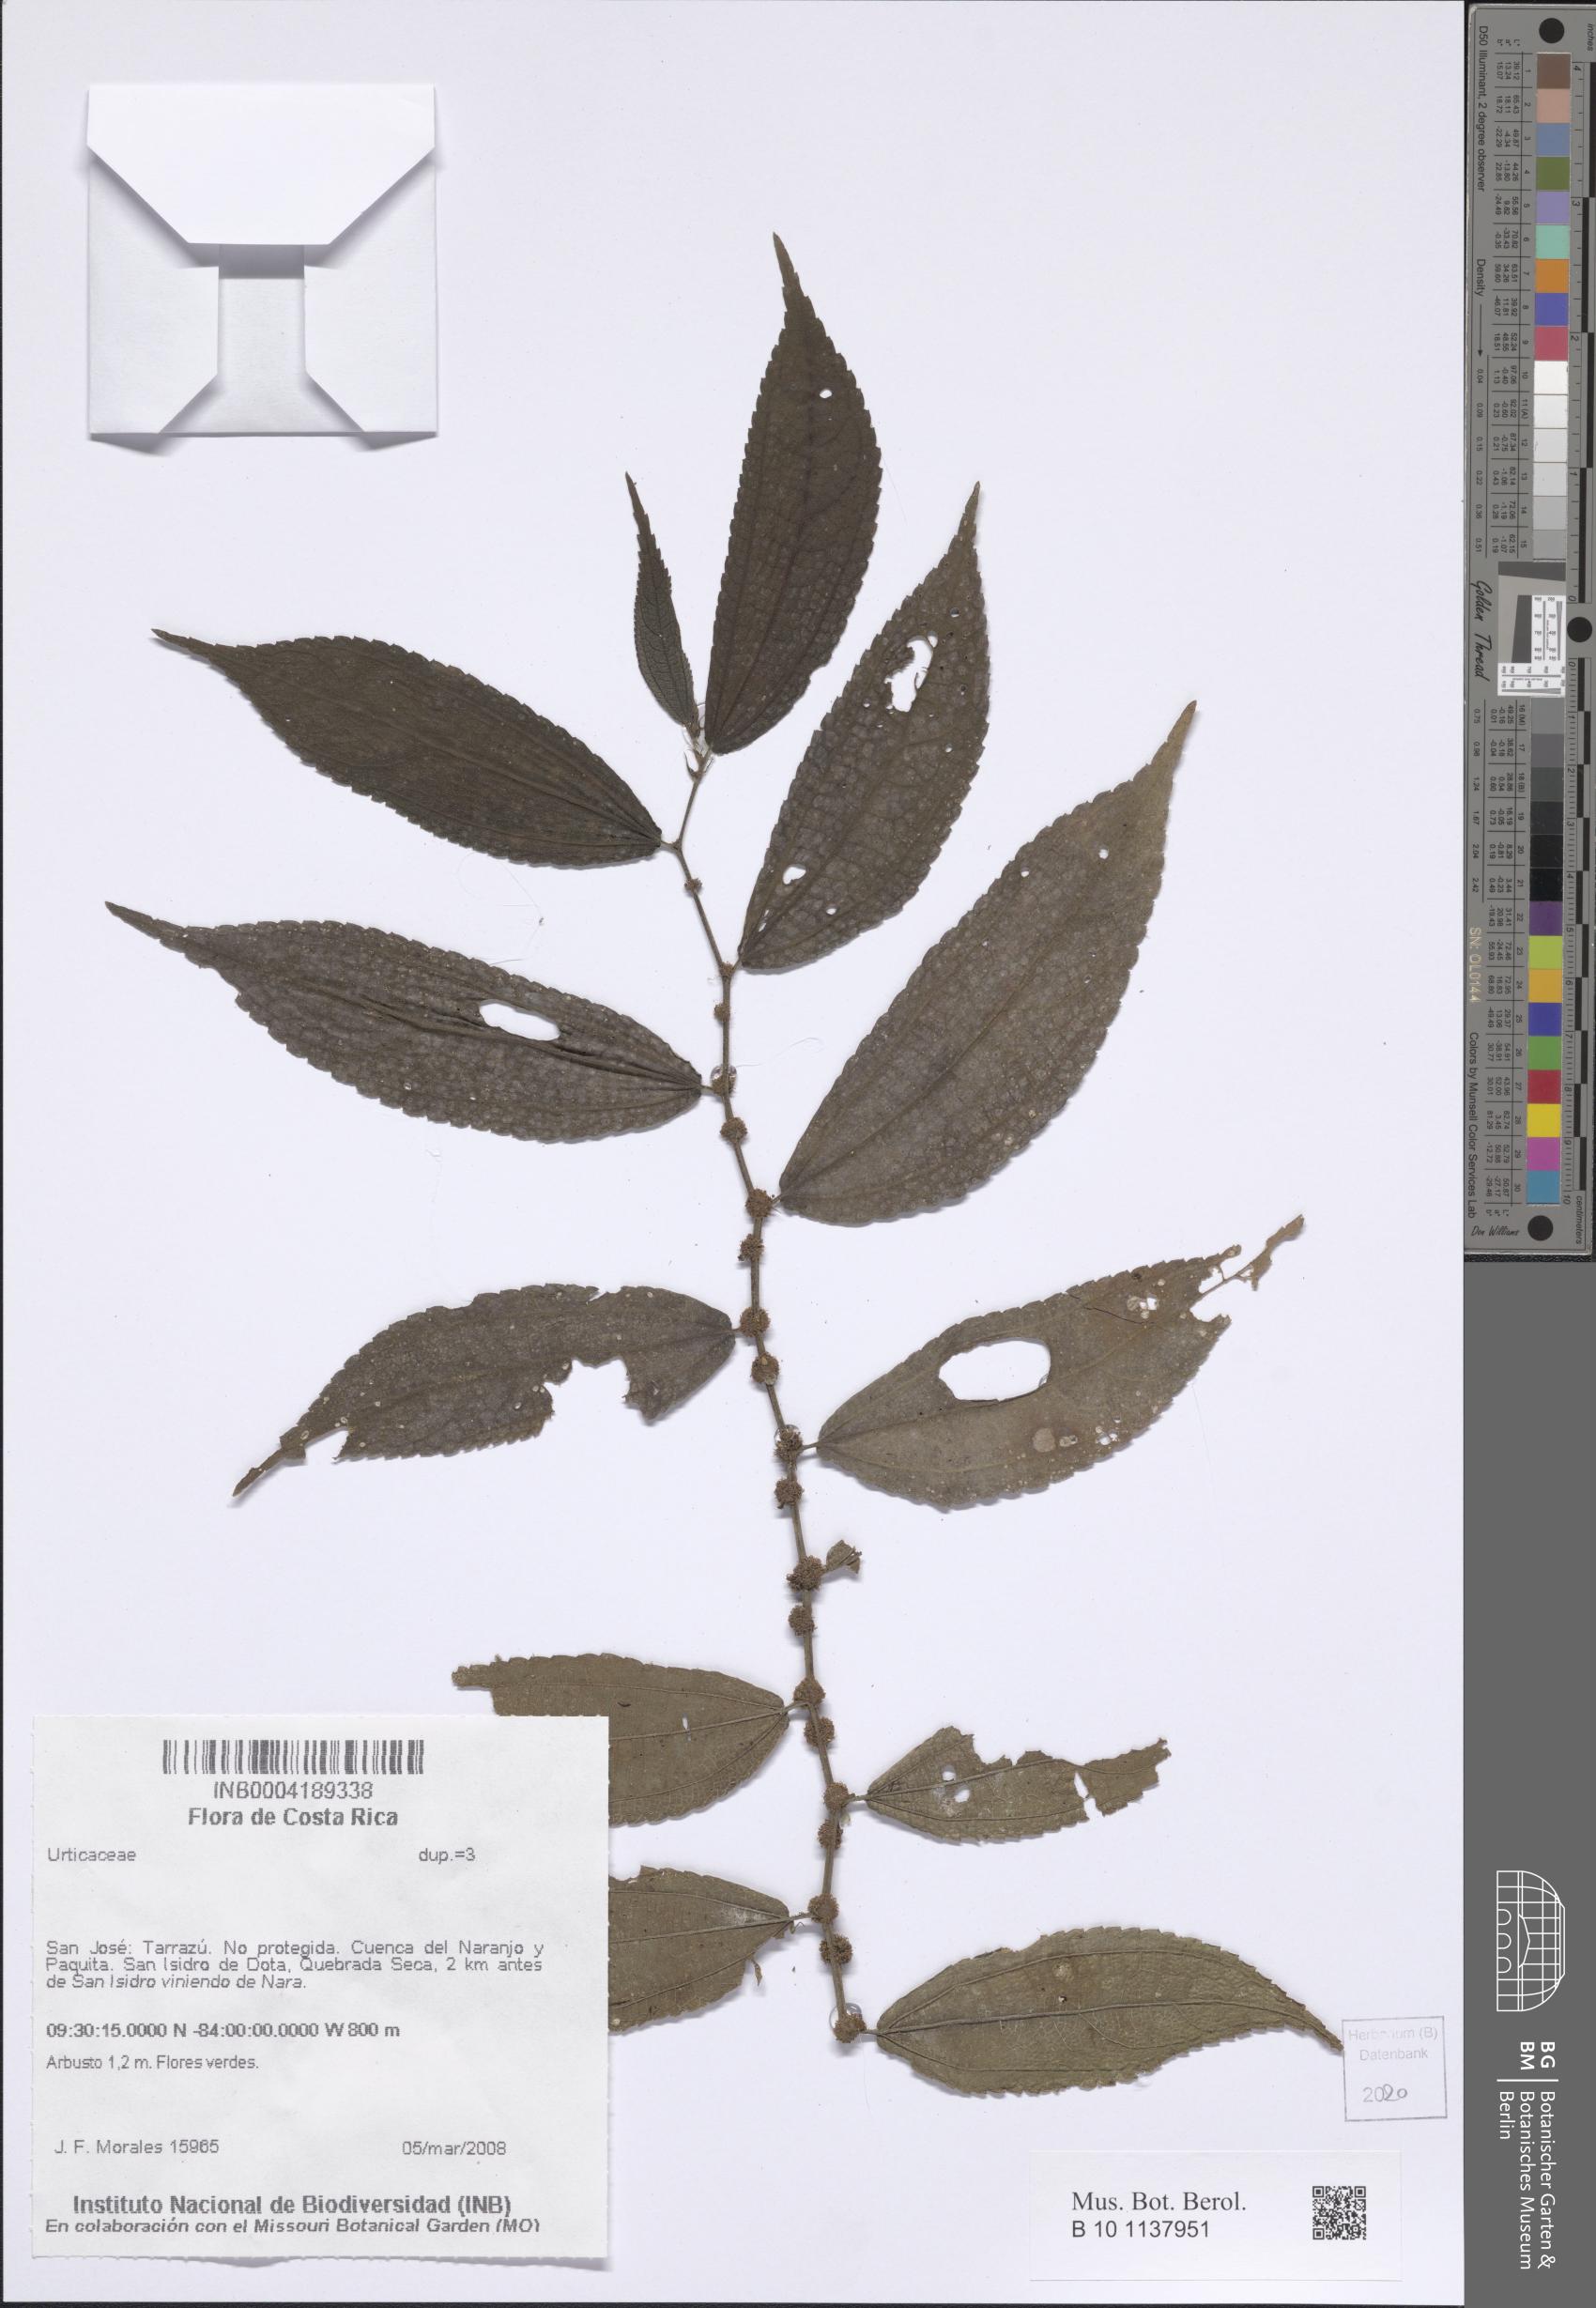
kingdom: Plantae
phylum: Tracheophyta
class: Magnoliopsida
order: Rosales
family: Urticaceae
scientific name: Urticaceae
